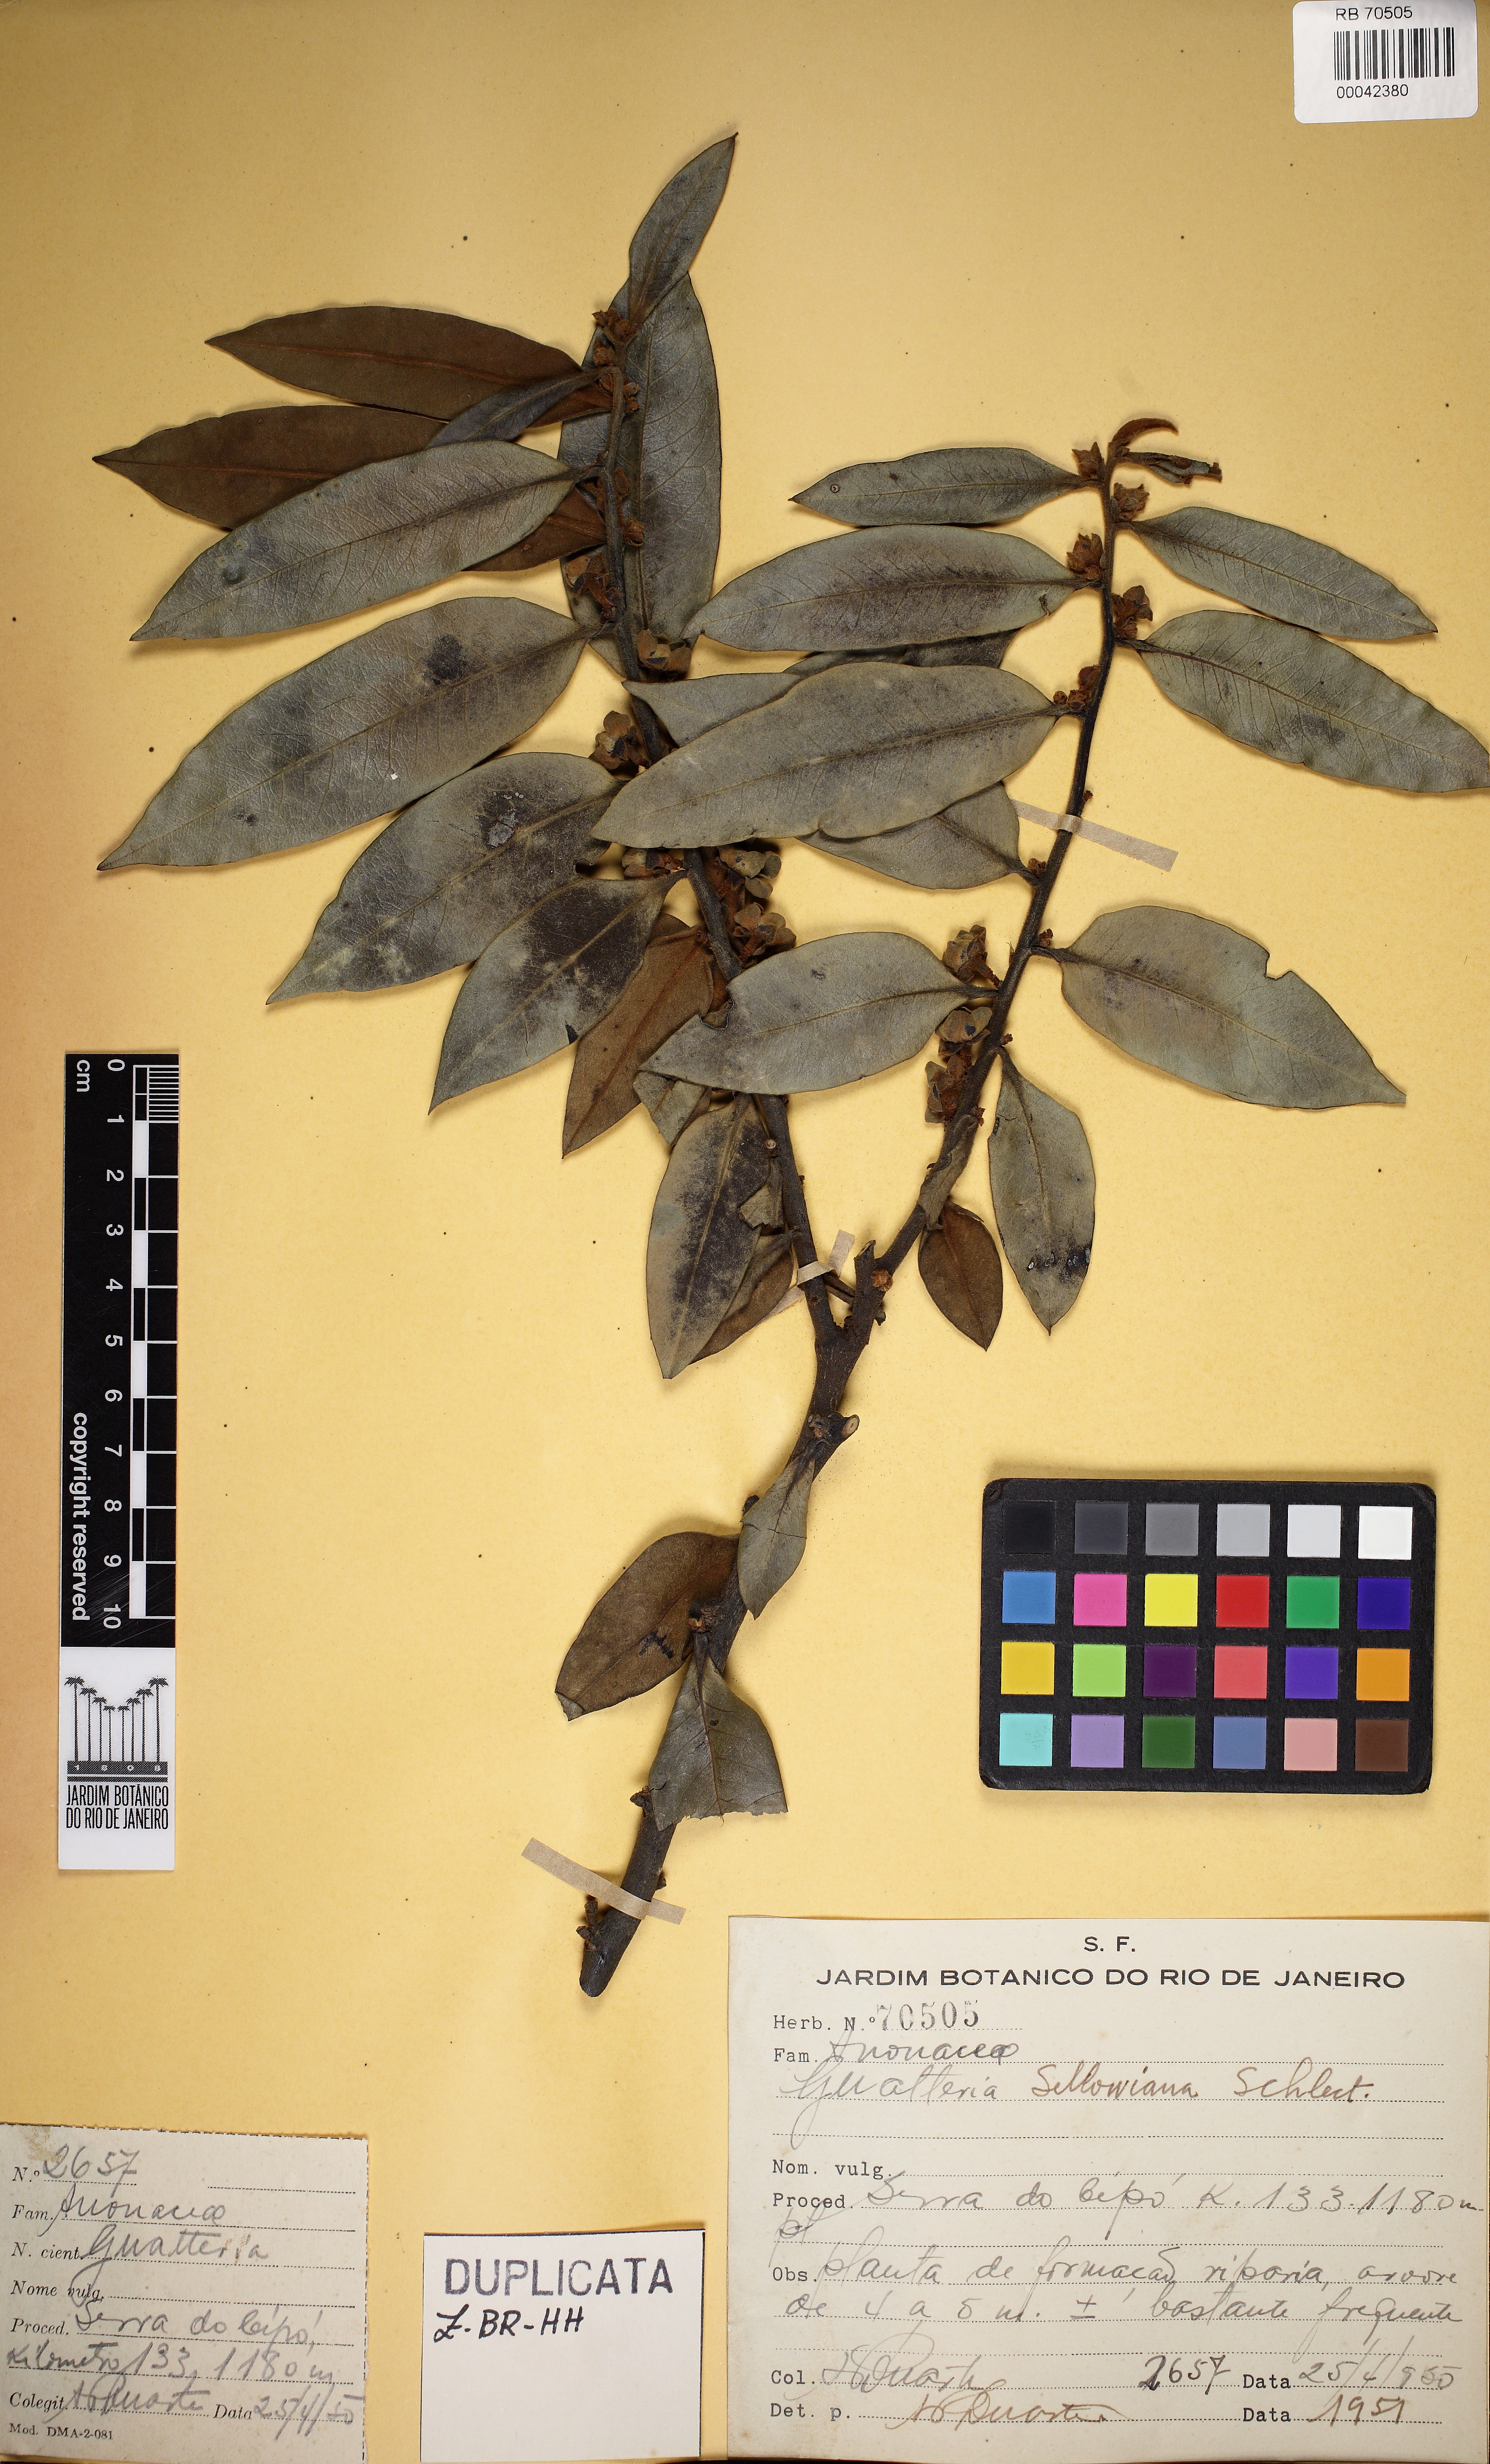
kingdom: Plantae
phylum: Tracheophyta
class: Magnoliopsida
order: Magnoliales
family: Annonaceae
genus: Guatteria
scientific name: Guatteria sellowiana
